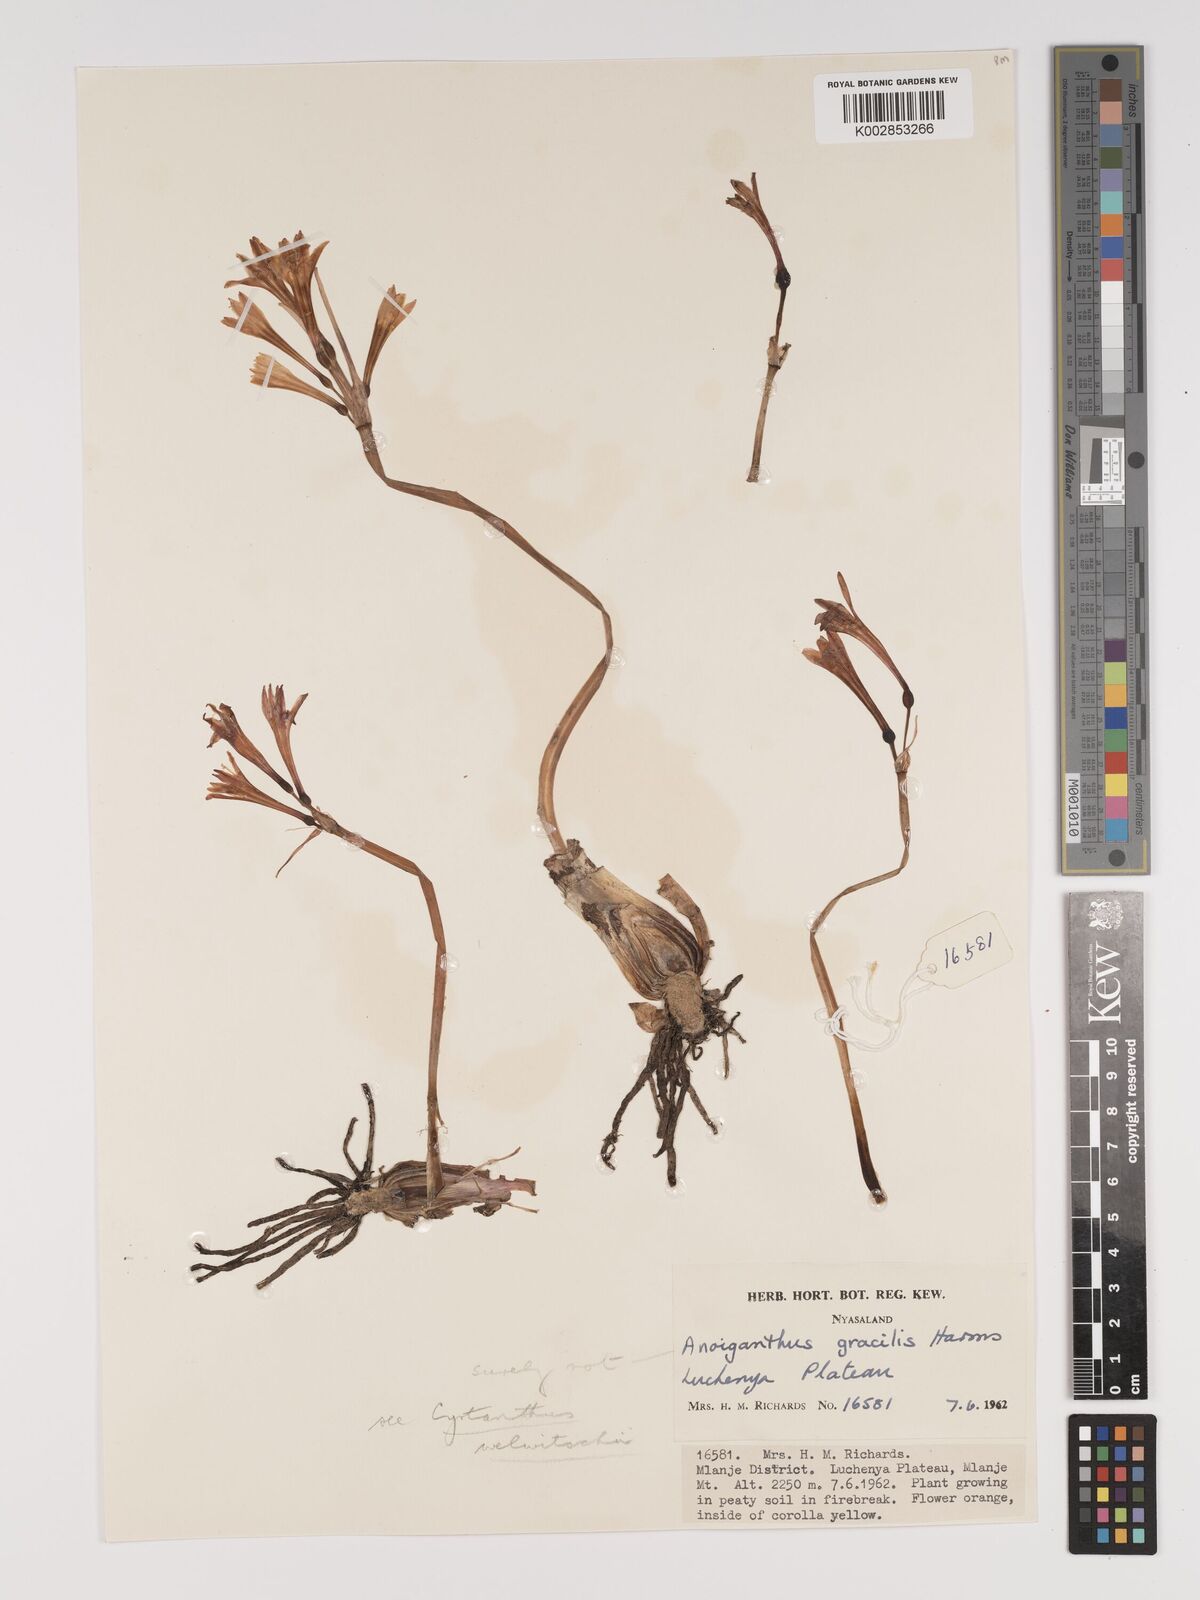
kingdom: Plantae
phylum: Tracheophyta
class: Liliopsida
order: Asparagales
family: Amaryllidaceae
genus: Cyrtanthus
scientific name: Cyrtanthus welwitschii
